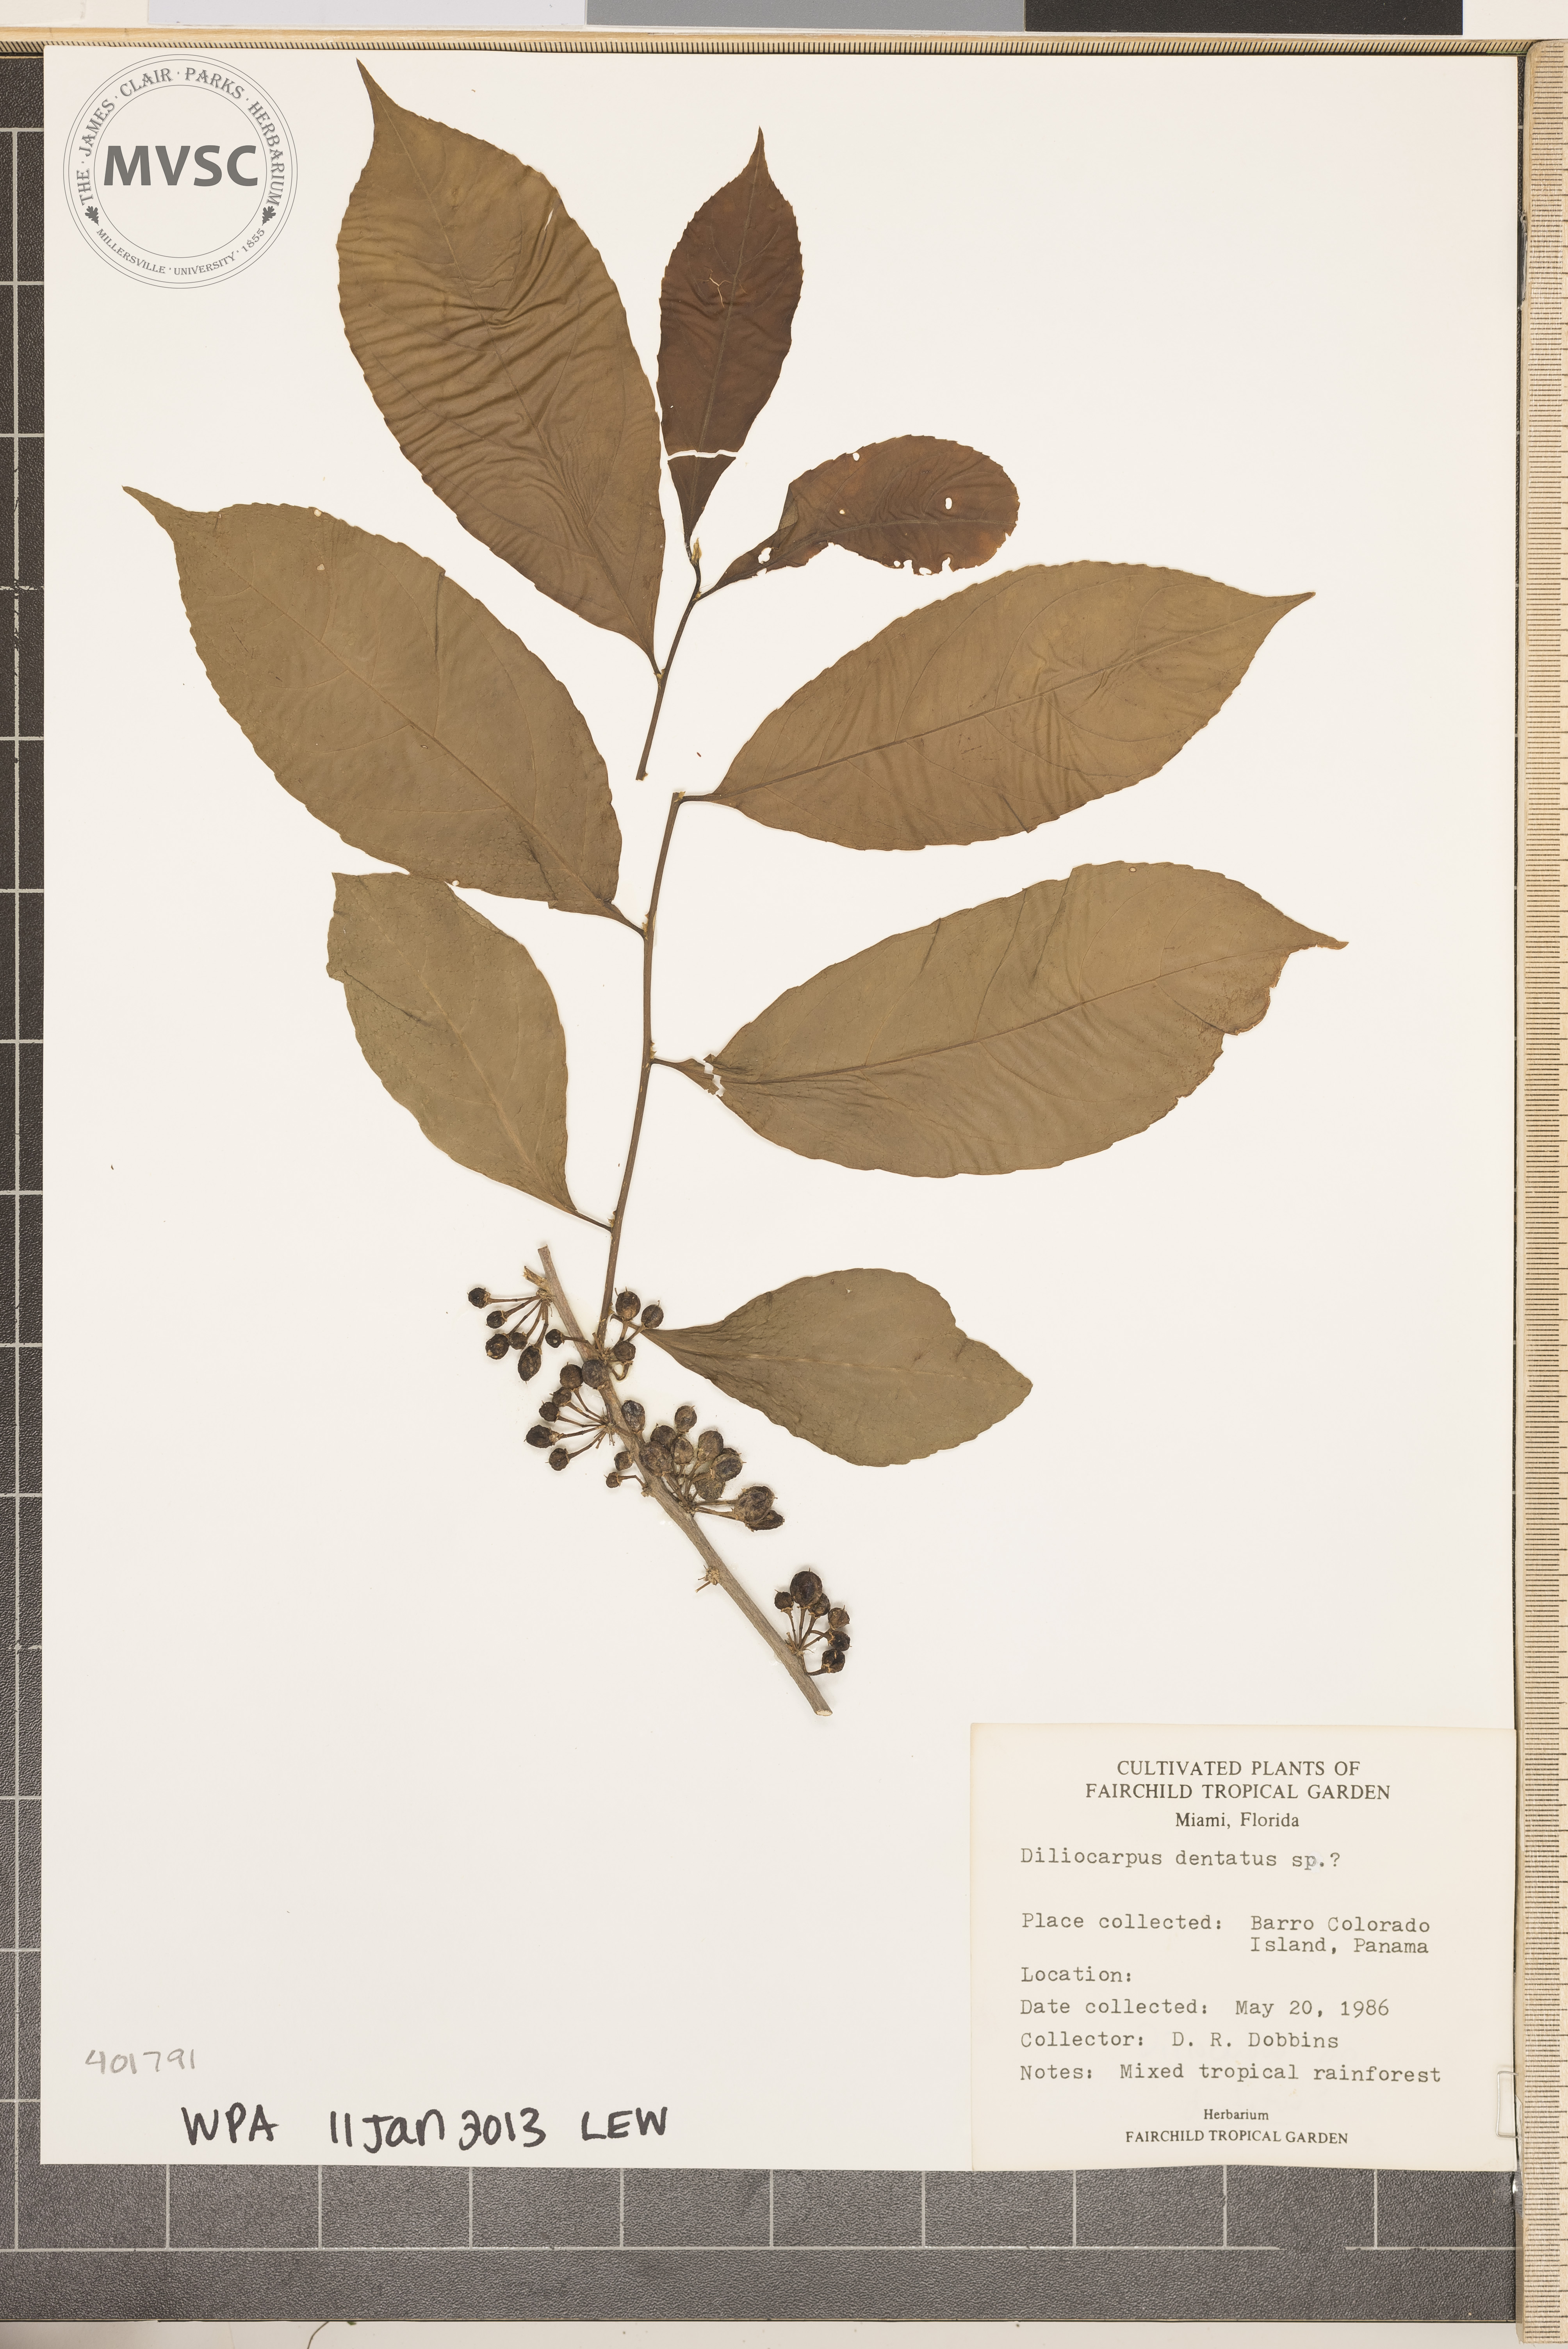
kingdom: Plantae
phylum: Tracheophyta
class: Magnoliopsida
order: Dilleniales
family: Dilleniaceae
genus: Doliocarpus
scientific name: Doliocarpus major
